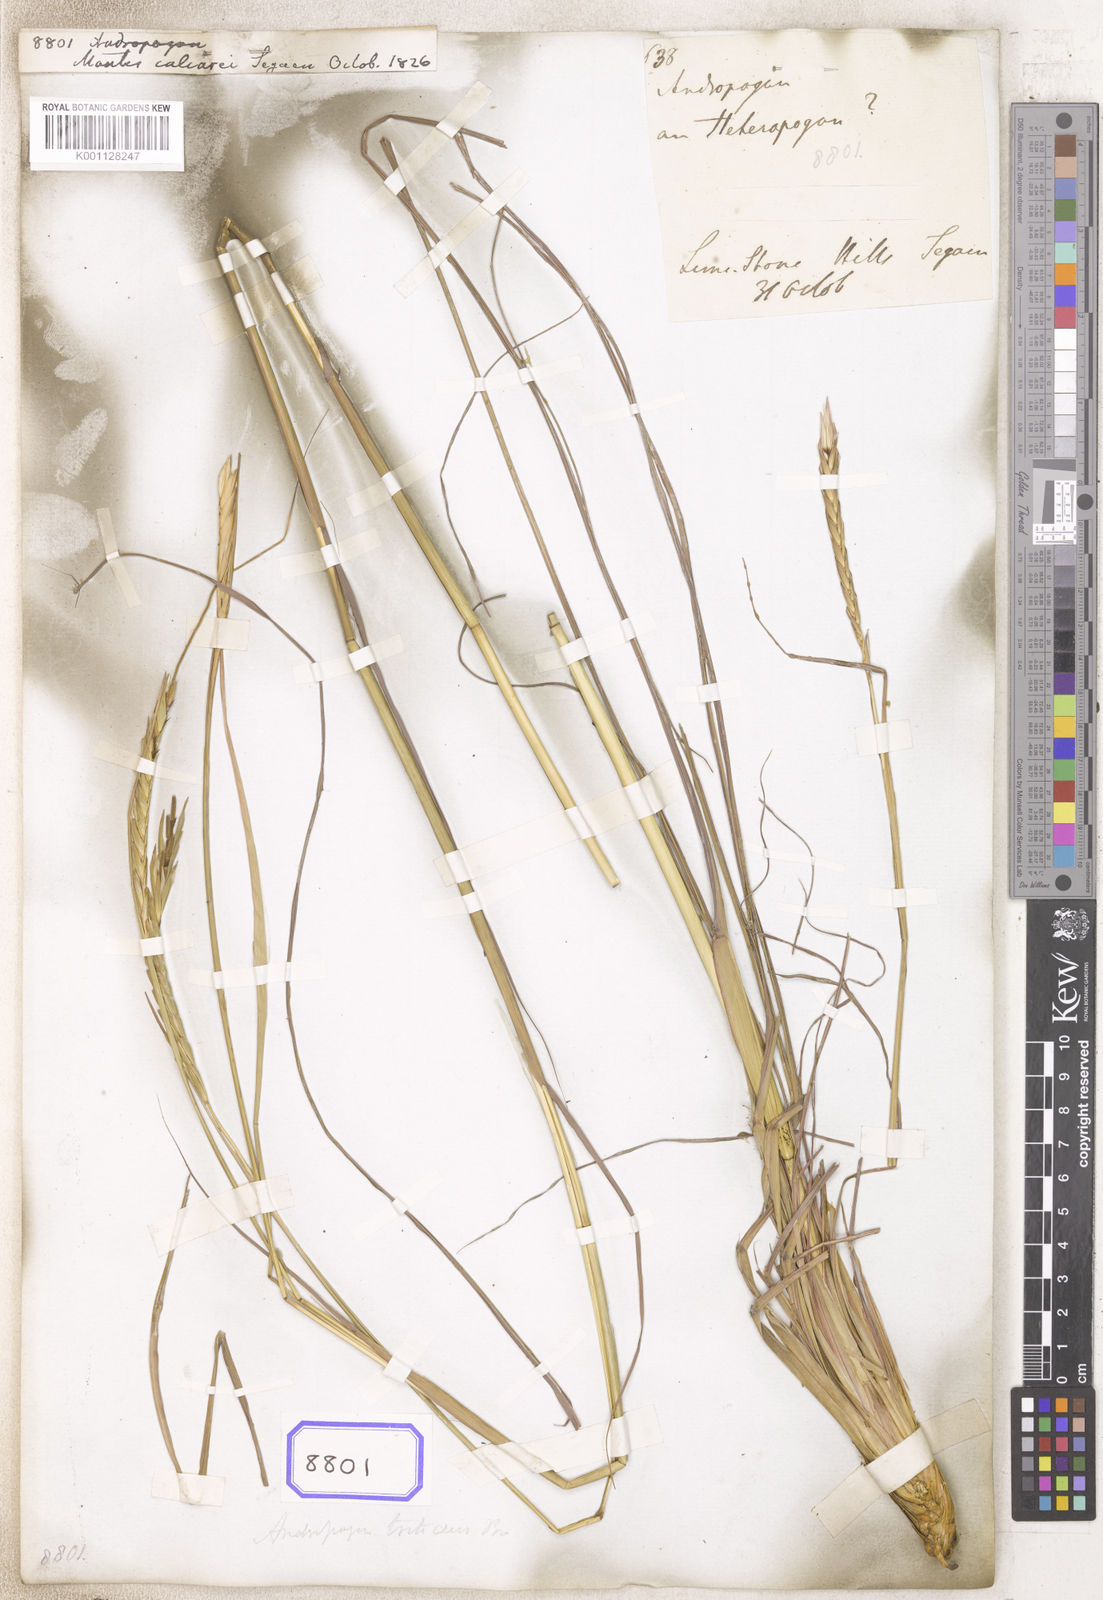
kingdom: Plantae
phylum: Tracheophyta
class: Liliopsida
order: Poales
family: Poaceae
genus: Andropogon
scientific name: Andropogon
